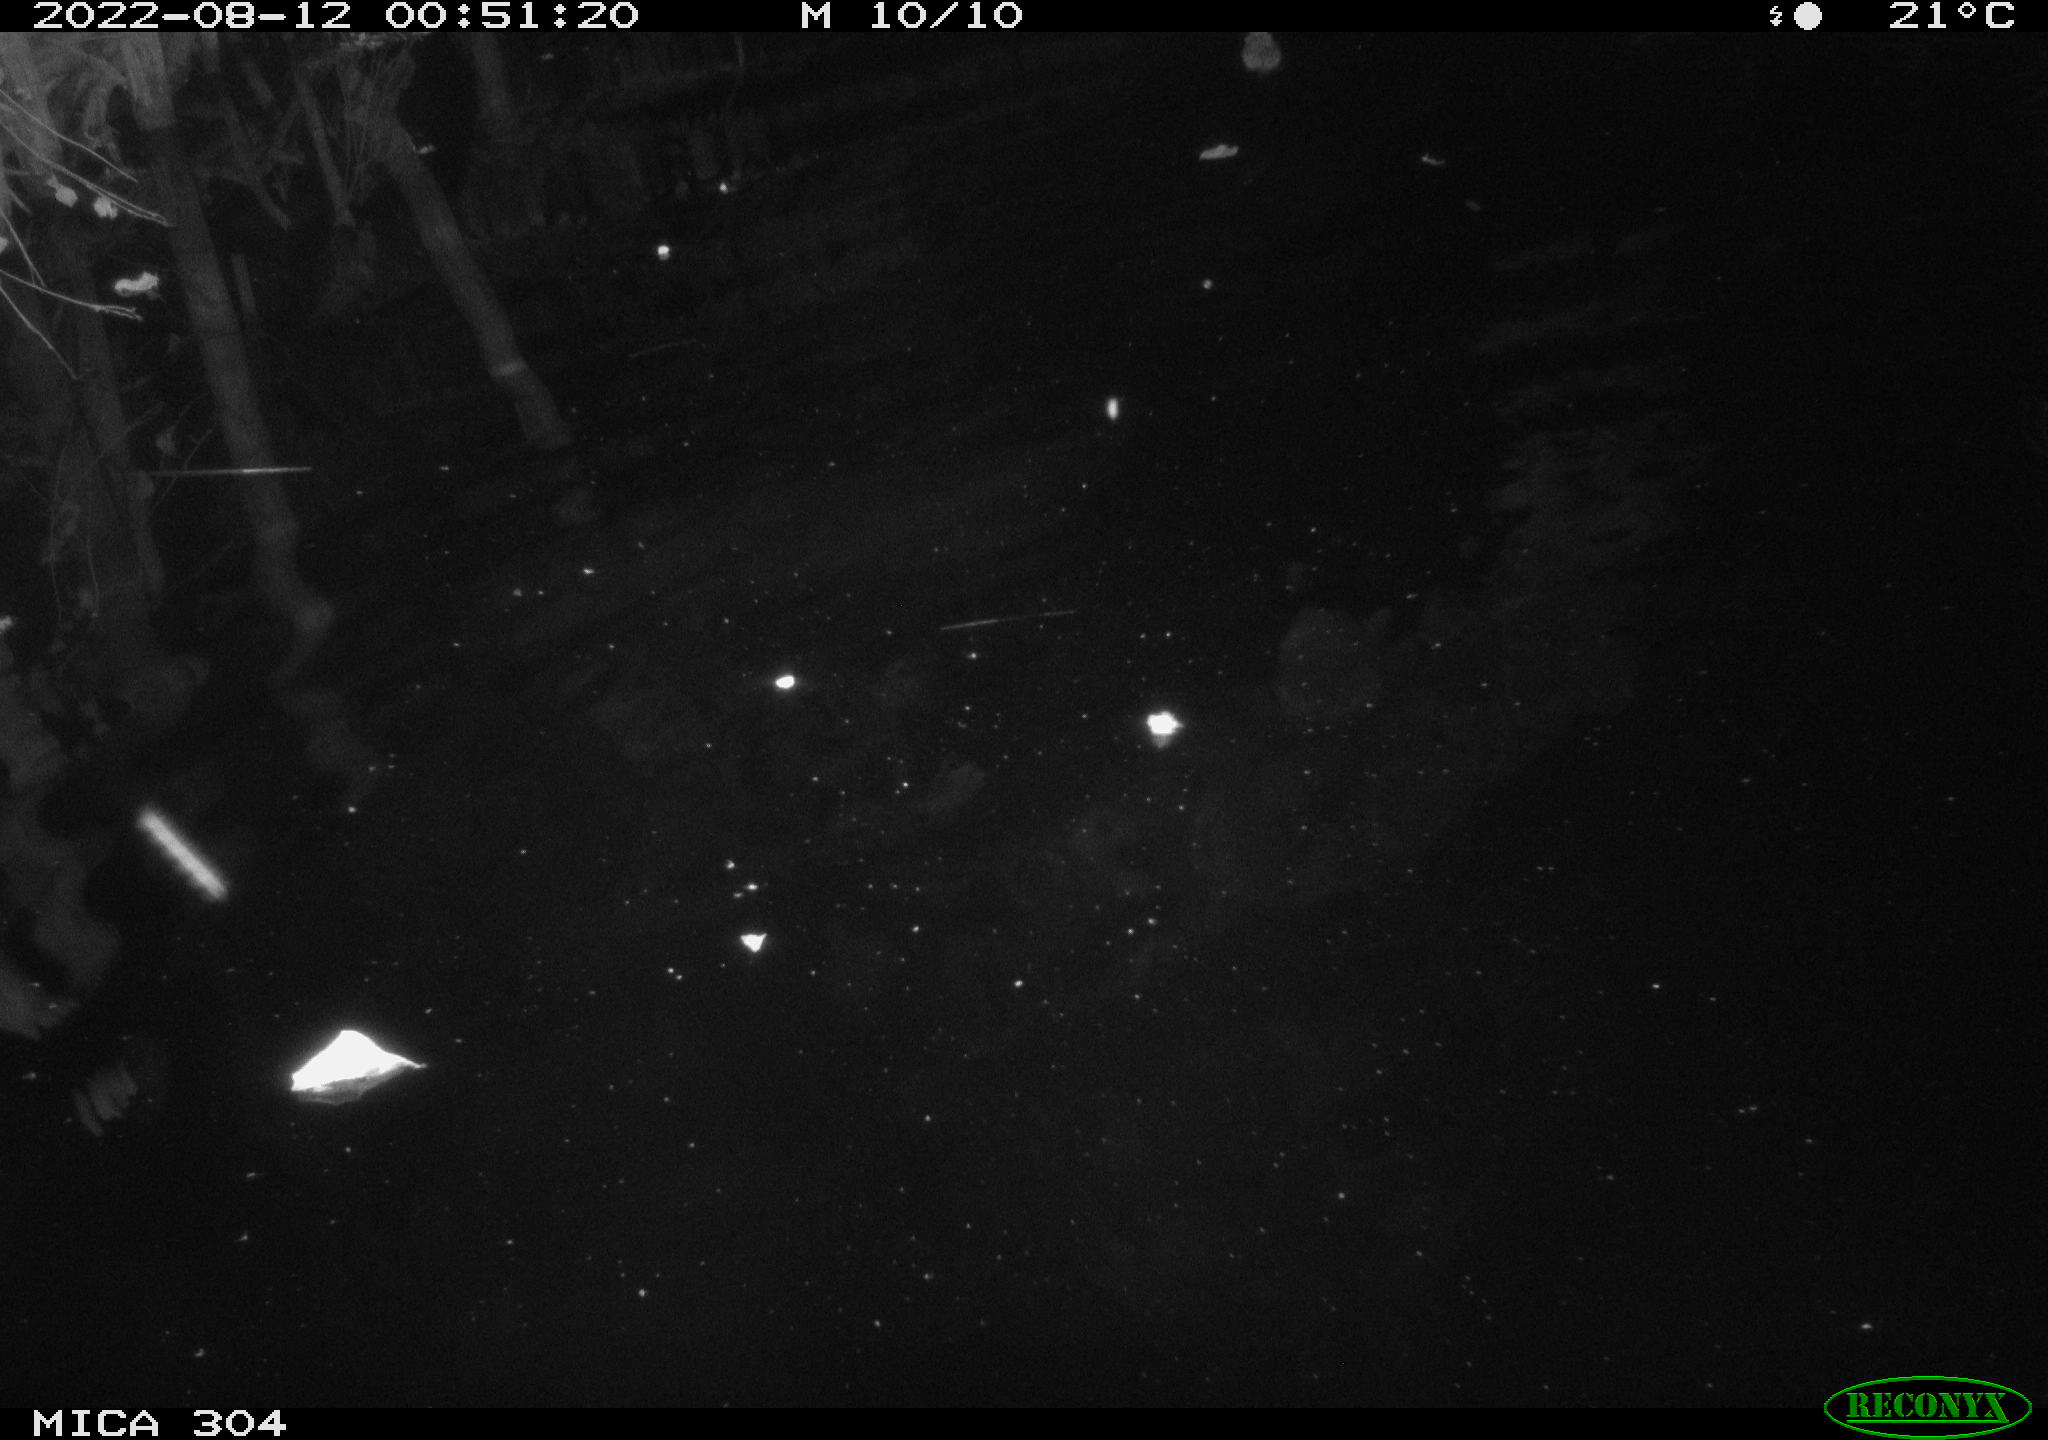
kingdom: Animalia
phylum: Chordata
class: Mammalia
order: Rodentia
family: Muridae
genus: Rattus
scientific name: Rattus norvegicus
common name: Brown rat
